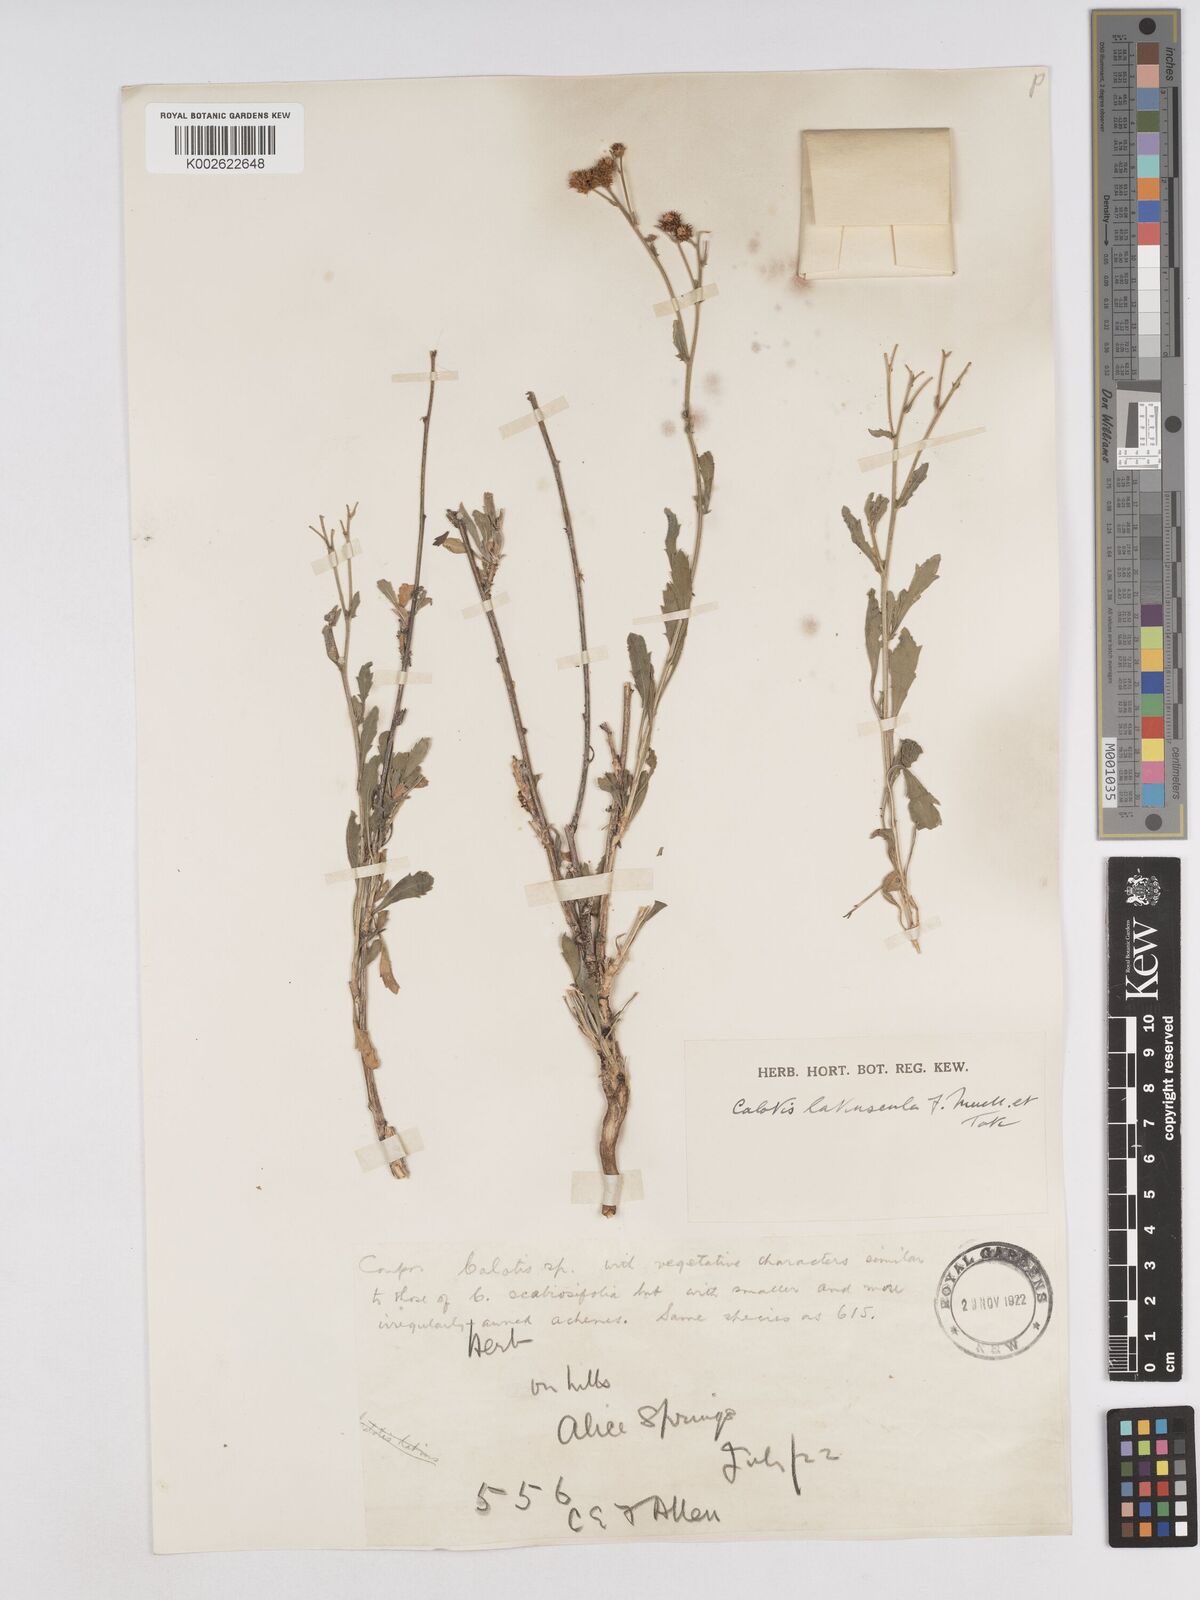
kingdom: Plantae
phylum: Tracheophyta
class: Magnoliopsida
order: Asterales
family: Asteraceae
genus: Calotis
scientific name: Calotis latiuscula
